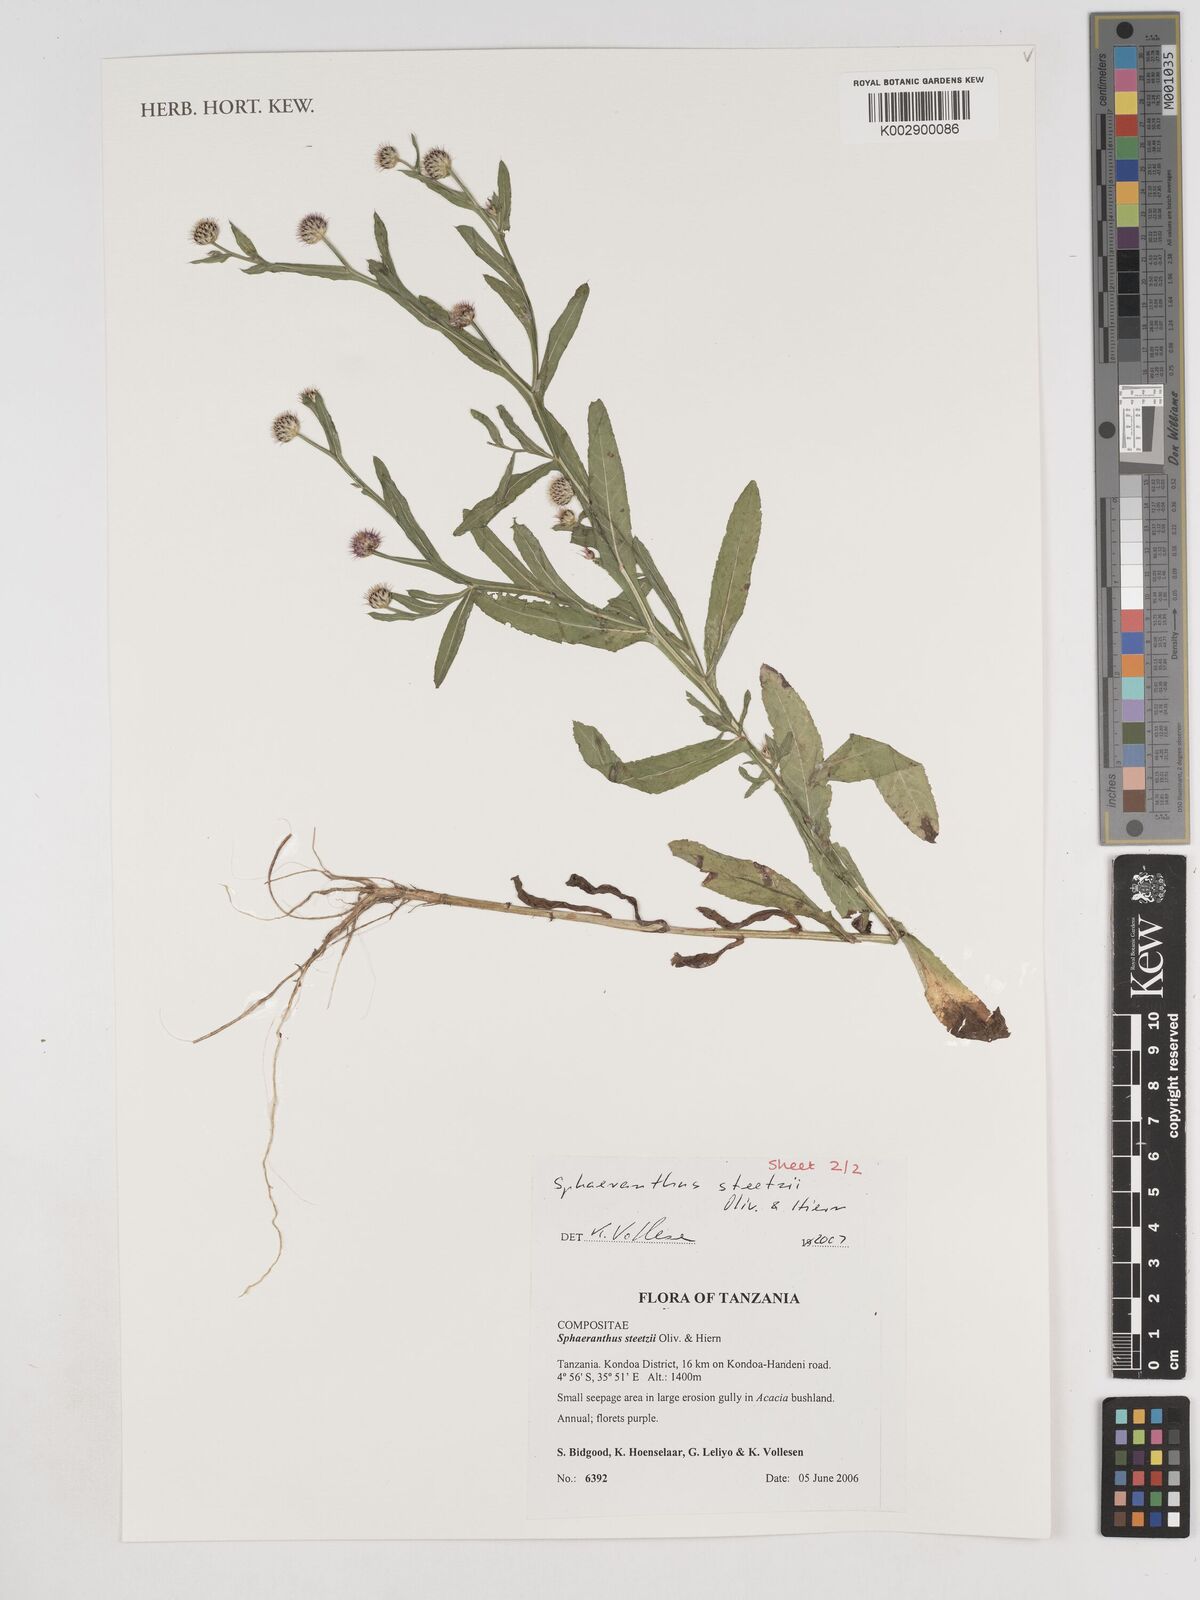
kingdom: Plantae
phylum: Tracheophyta
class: Magnoliopsida
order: Asterales
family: Asteraceae
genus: Sphaeranthus
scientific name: Sphaeranthus steetzii
